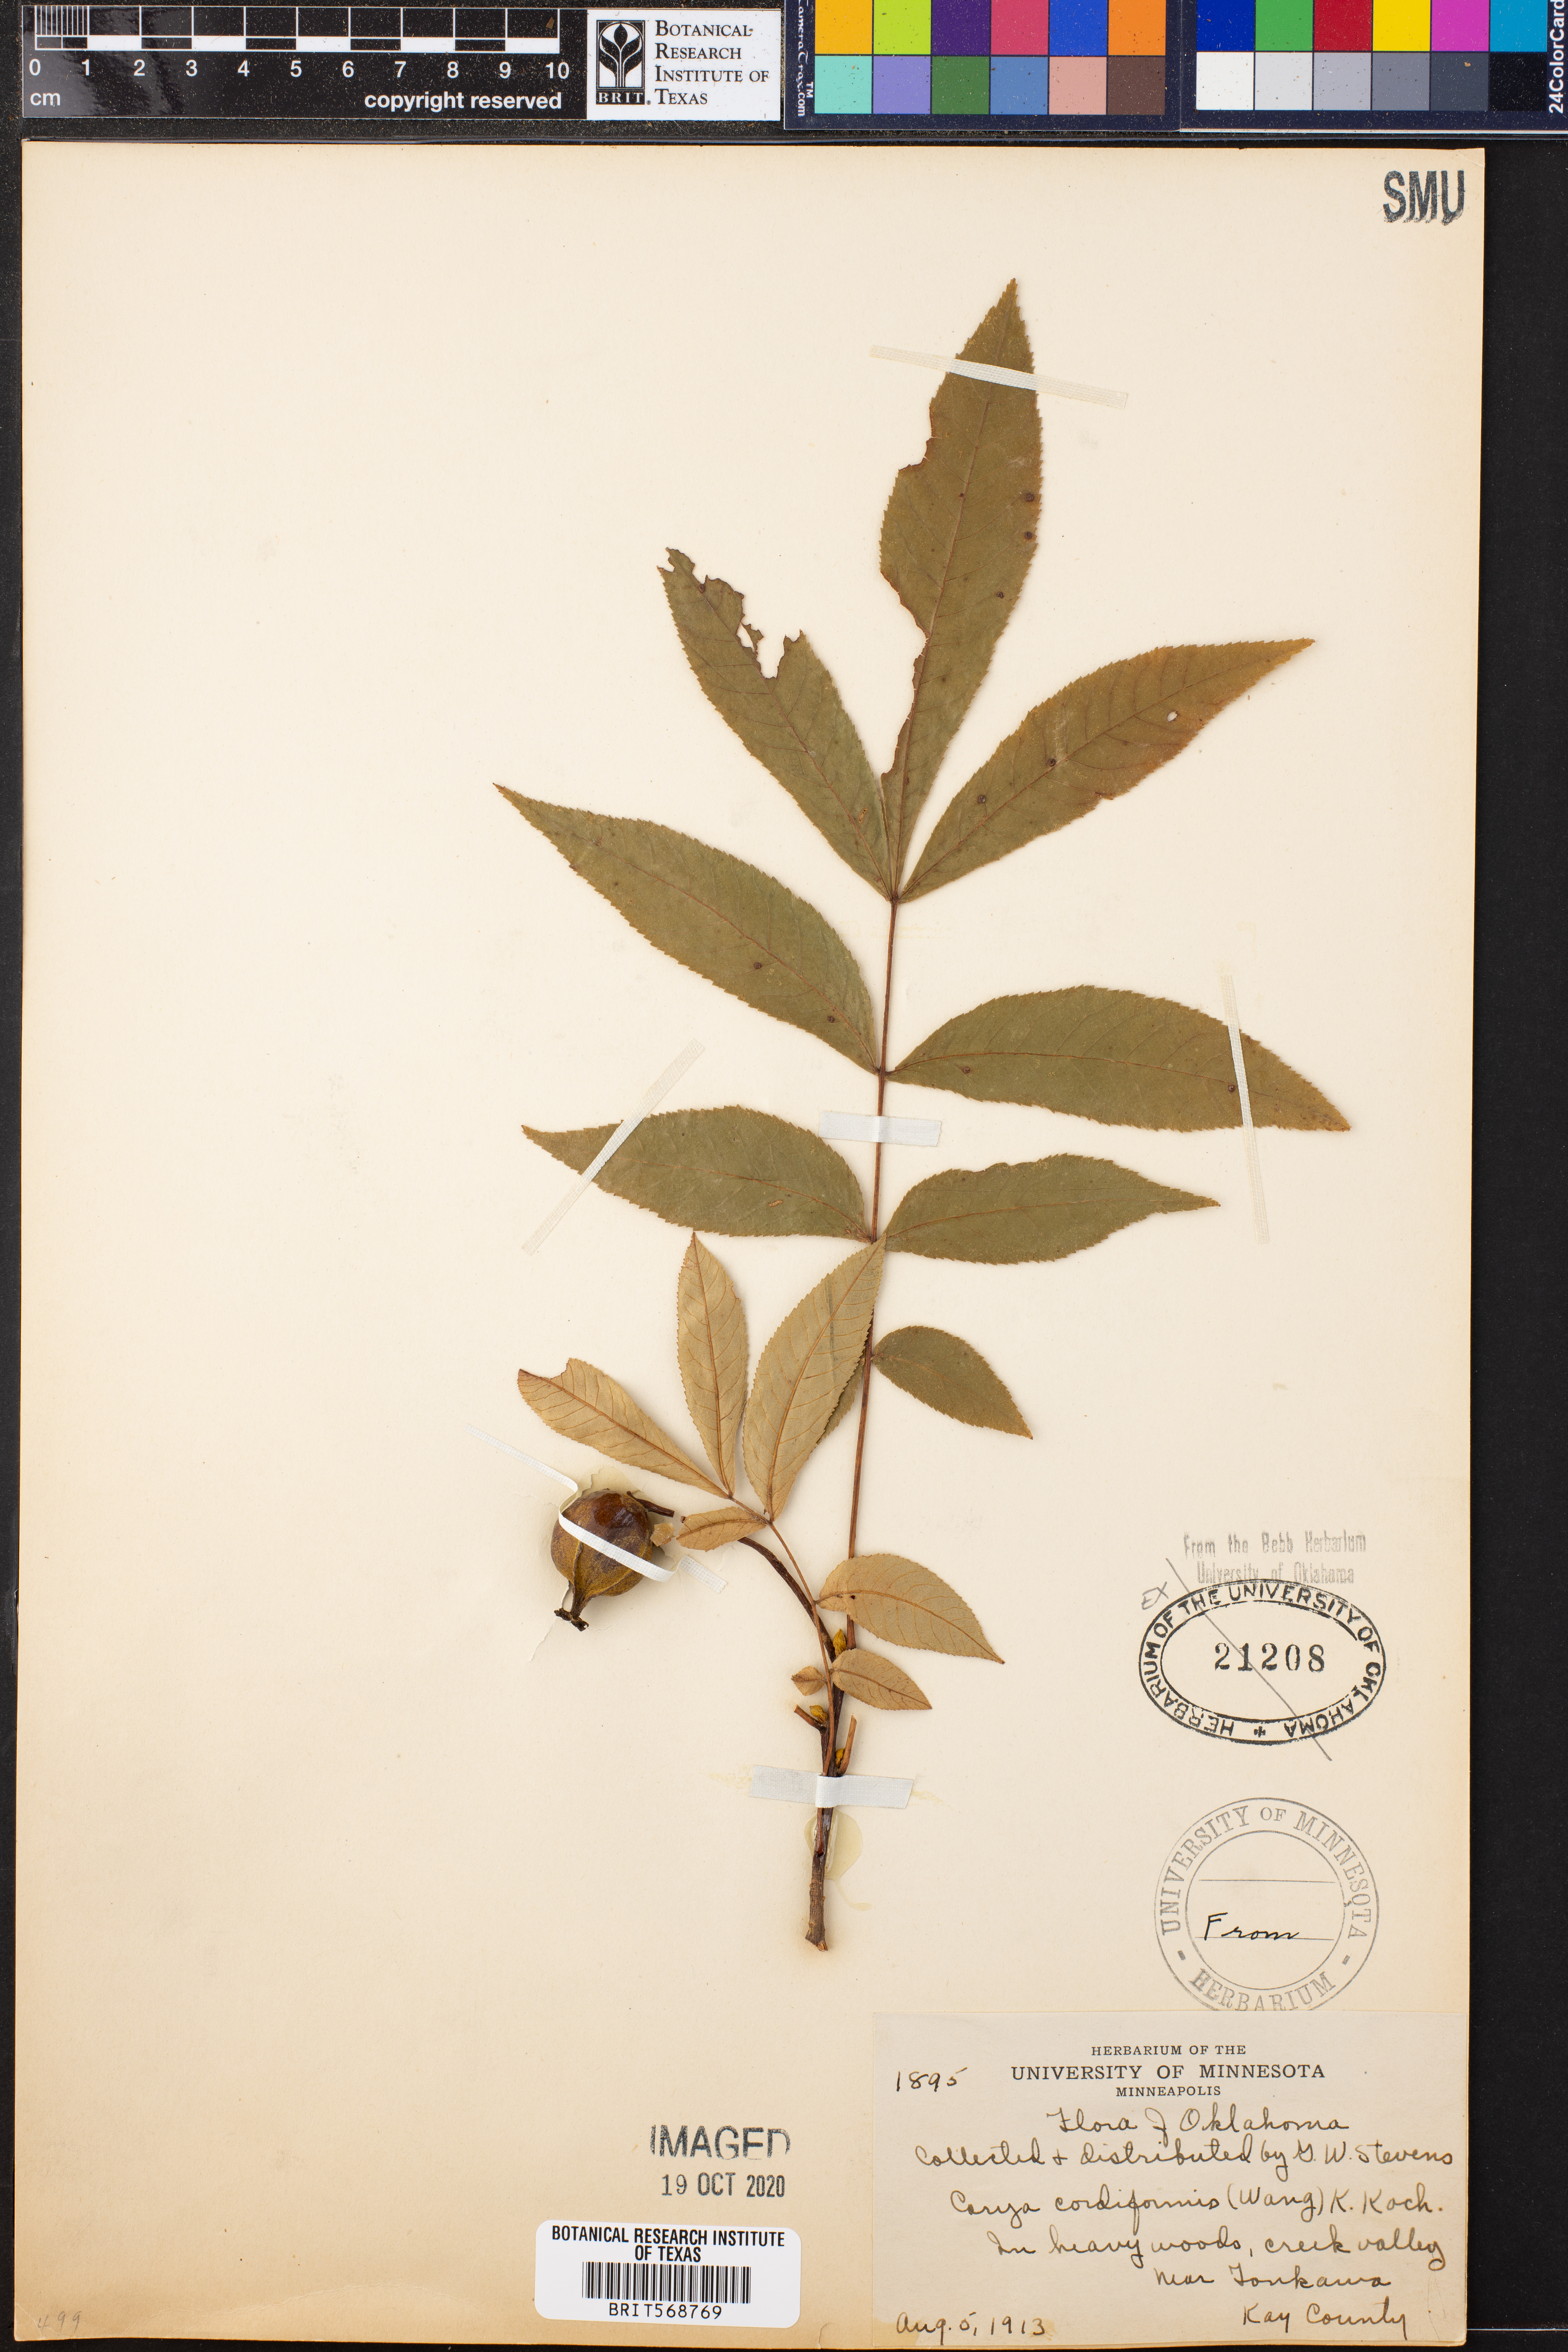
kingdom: Plantae
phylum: Tracheophyta
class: Magnoliopsida
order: Fagales
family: Juglandaceae
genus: Carya
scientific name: Carya cordiformis
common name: Bitternut hickory
